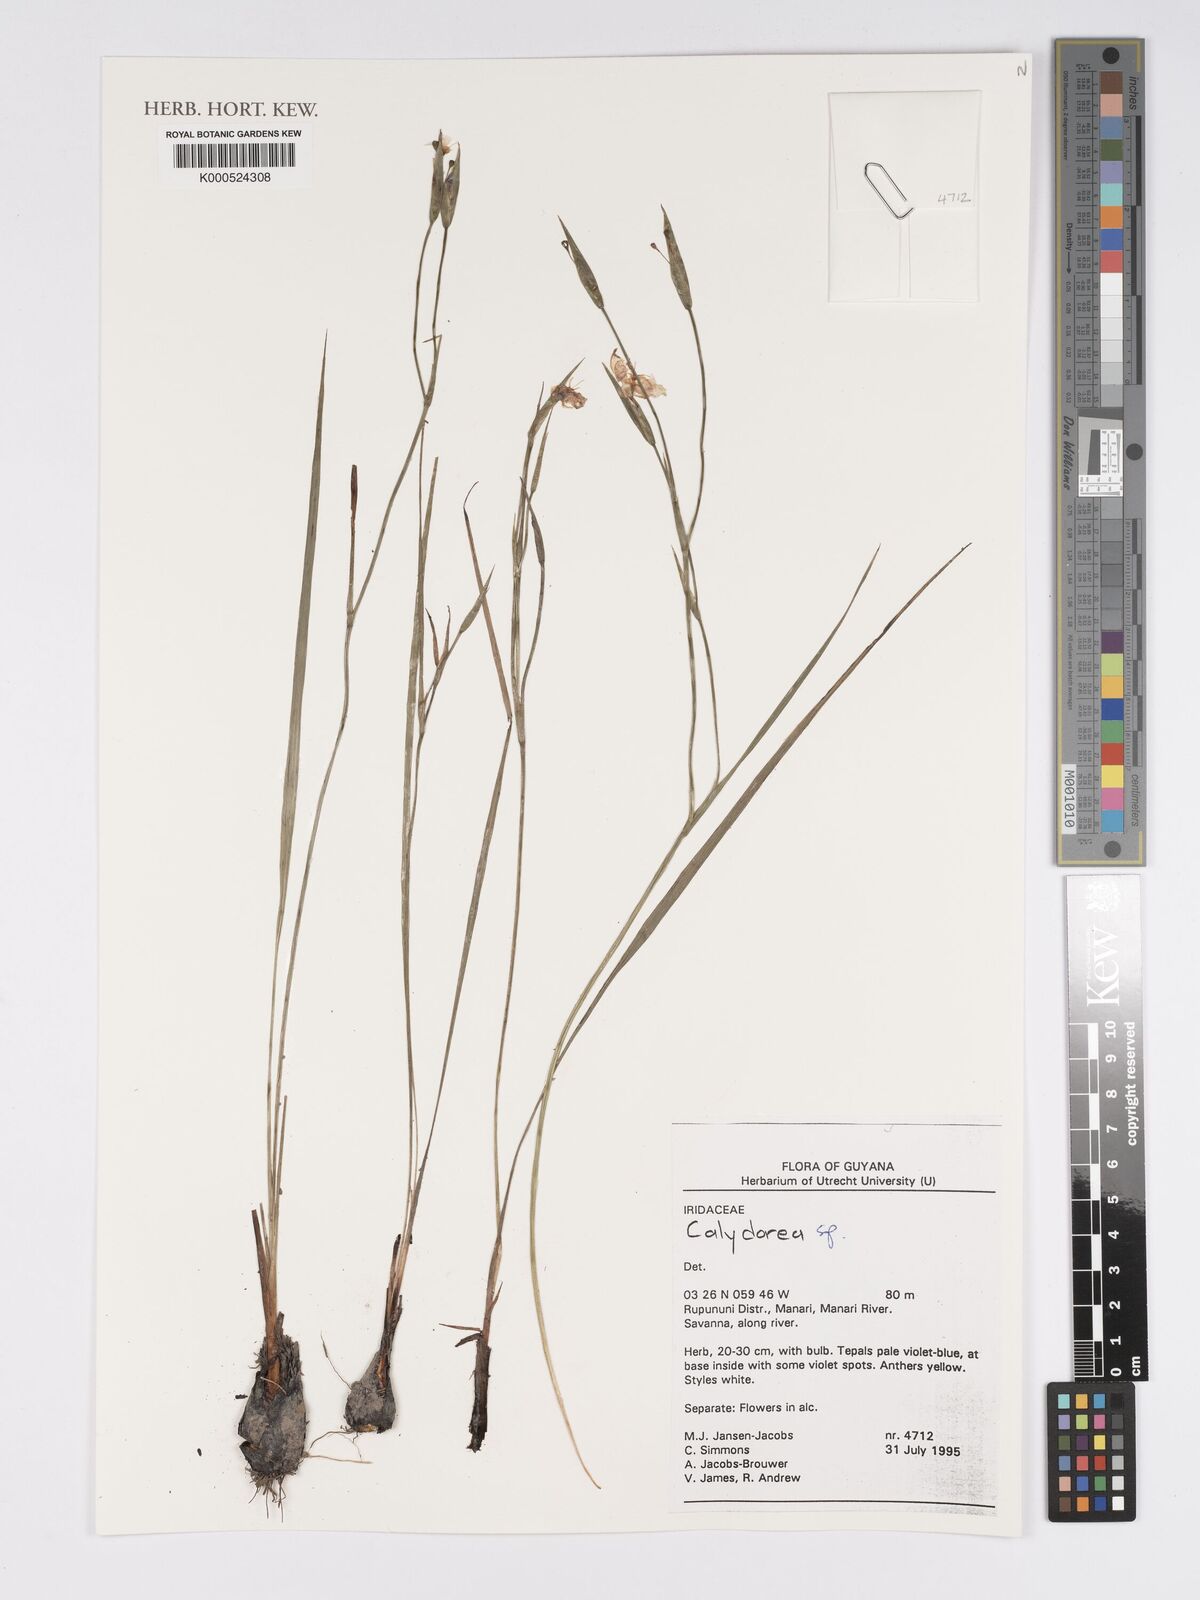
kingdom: Plantae
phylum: Tracheophyta
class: Liliopsida
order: Asparagales
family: Iridaceae
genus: Calydorea
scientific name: Calydorea
